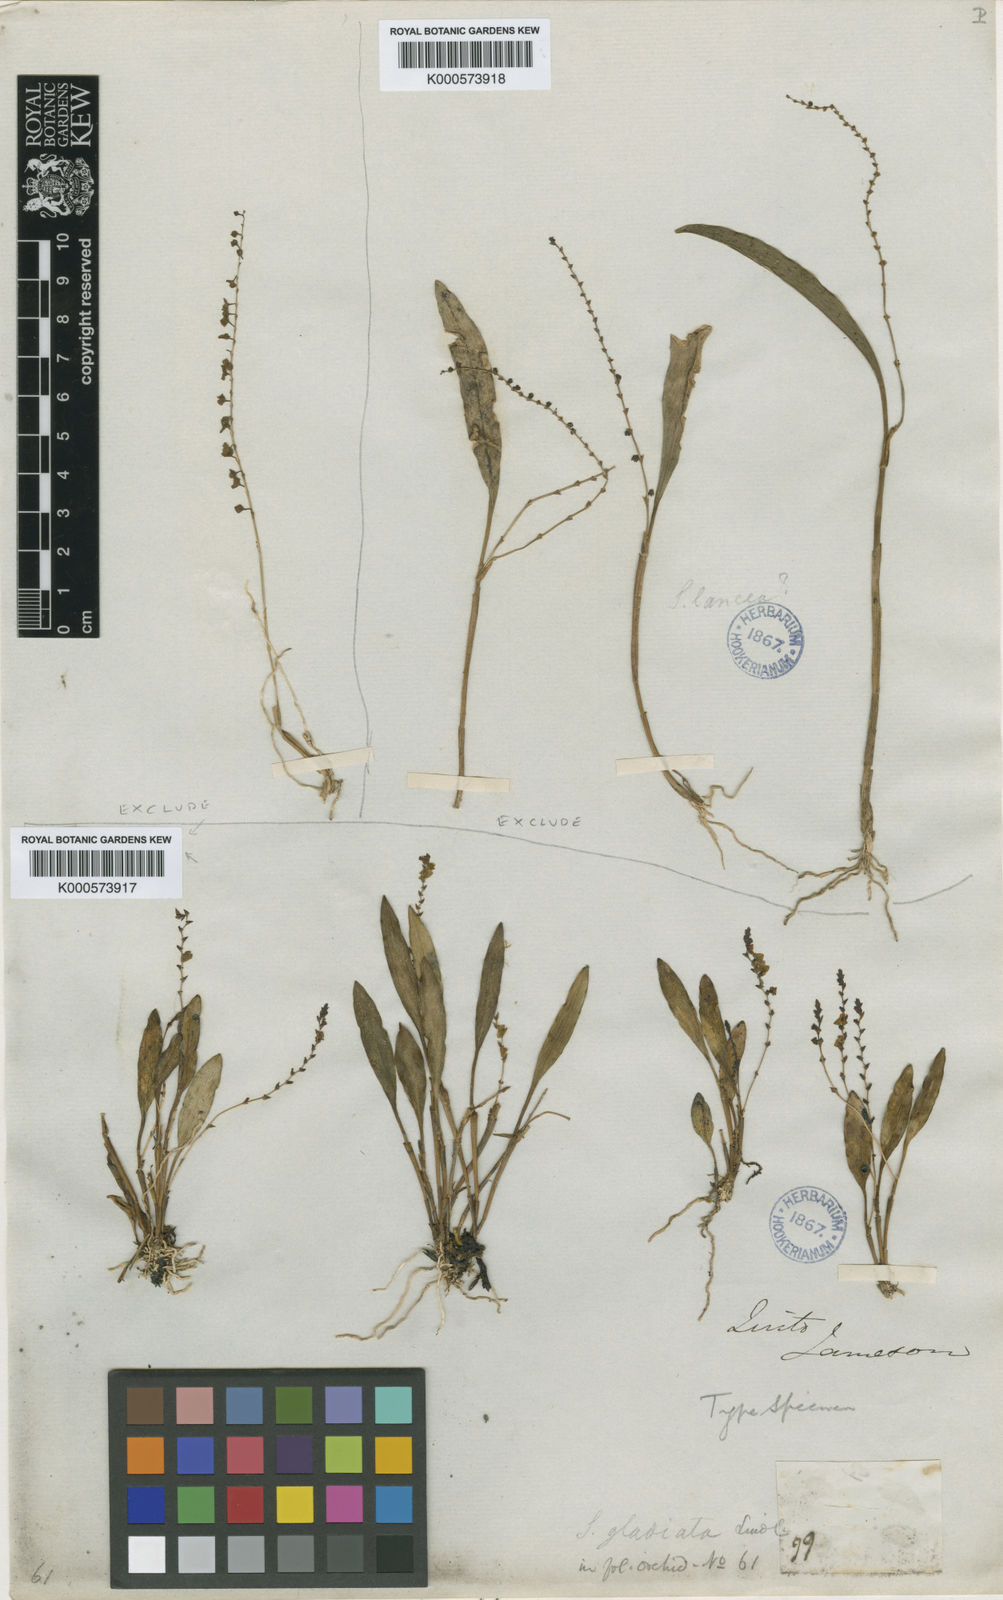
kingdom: Plantae
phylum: Tracheophyta
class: Liliopsida
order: Asparagales
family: Orchidaceae
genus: Stelis
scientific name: Stelis hallii
